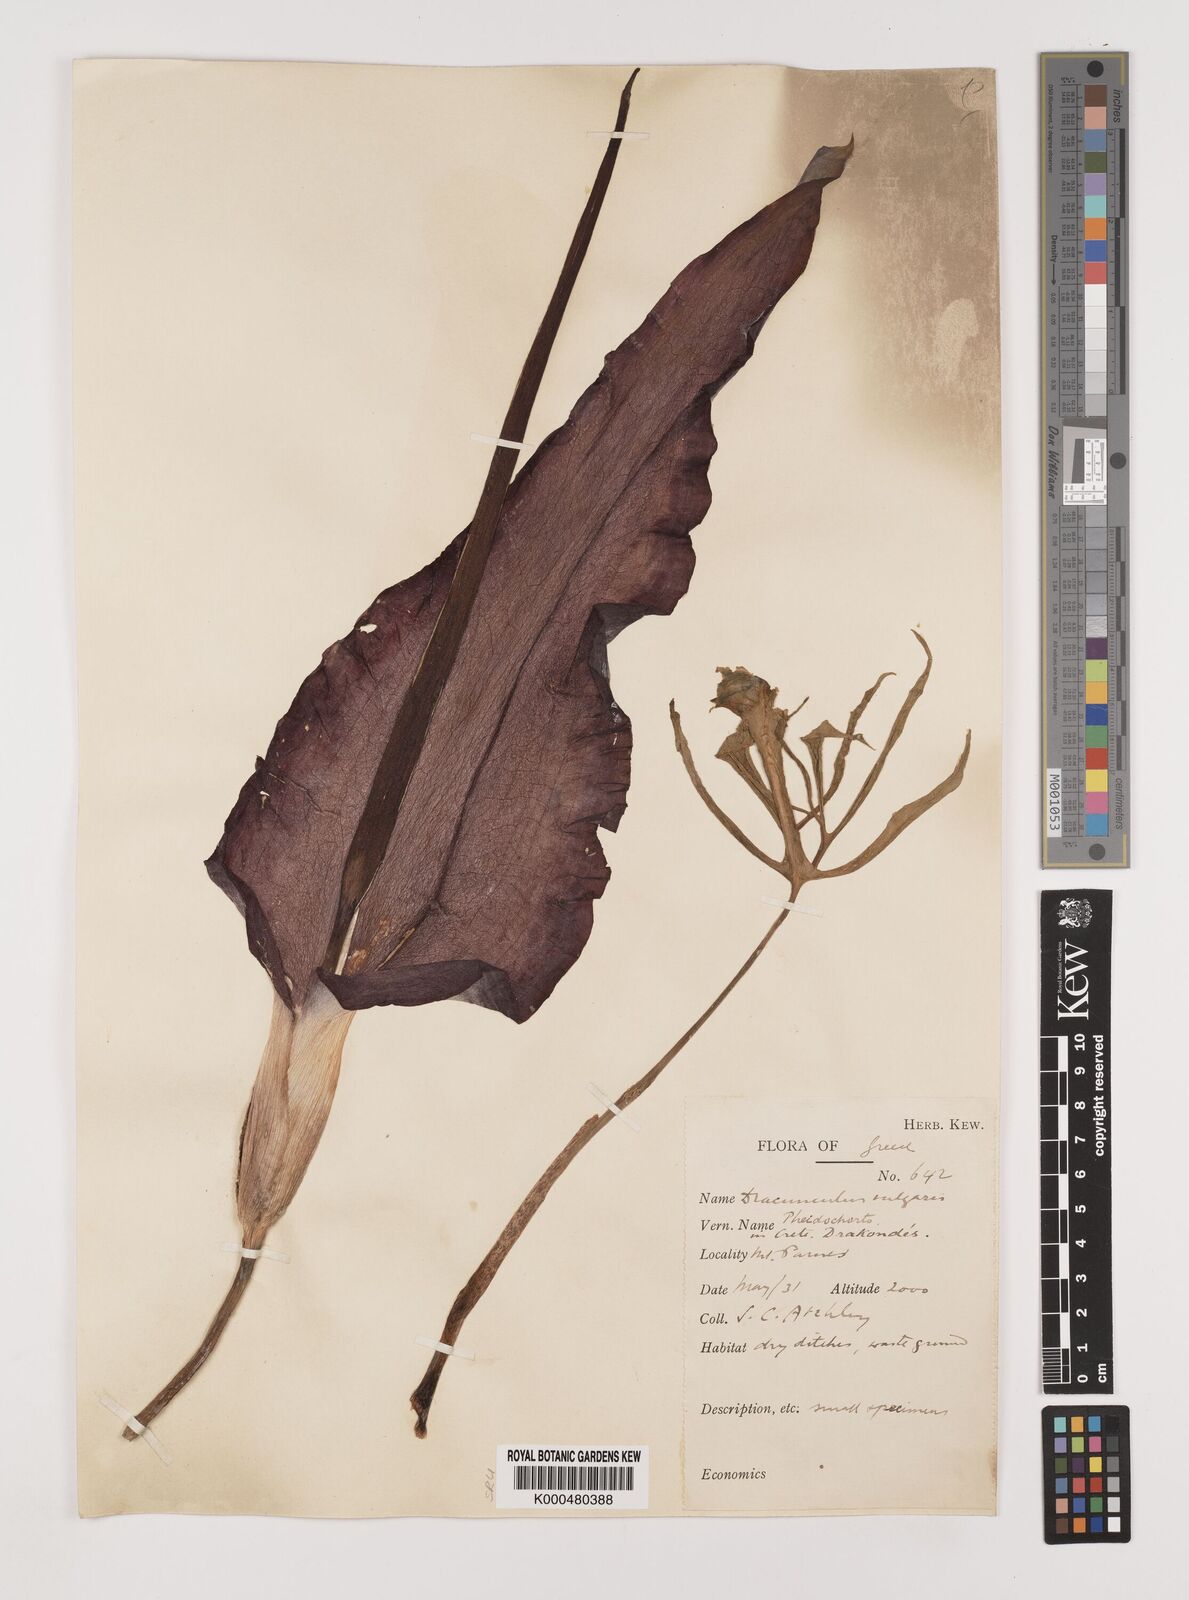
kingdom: Plantae
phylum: Tracheophyta
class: Liliopsida
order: Alismatales
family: Araceae
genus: Dracunculus
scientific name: Dracunculus vulgaris
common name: Dragon arum
